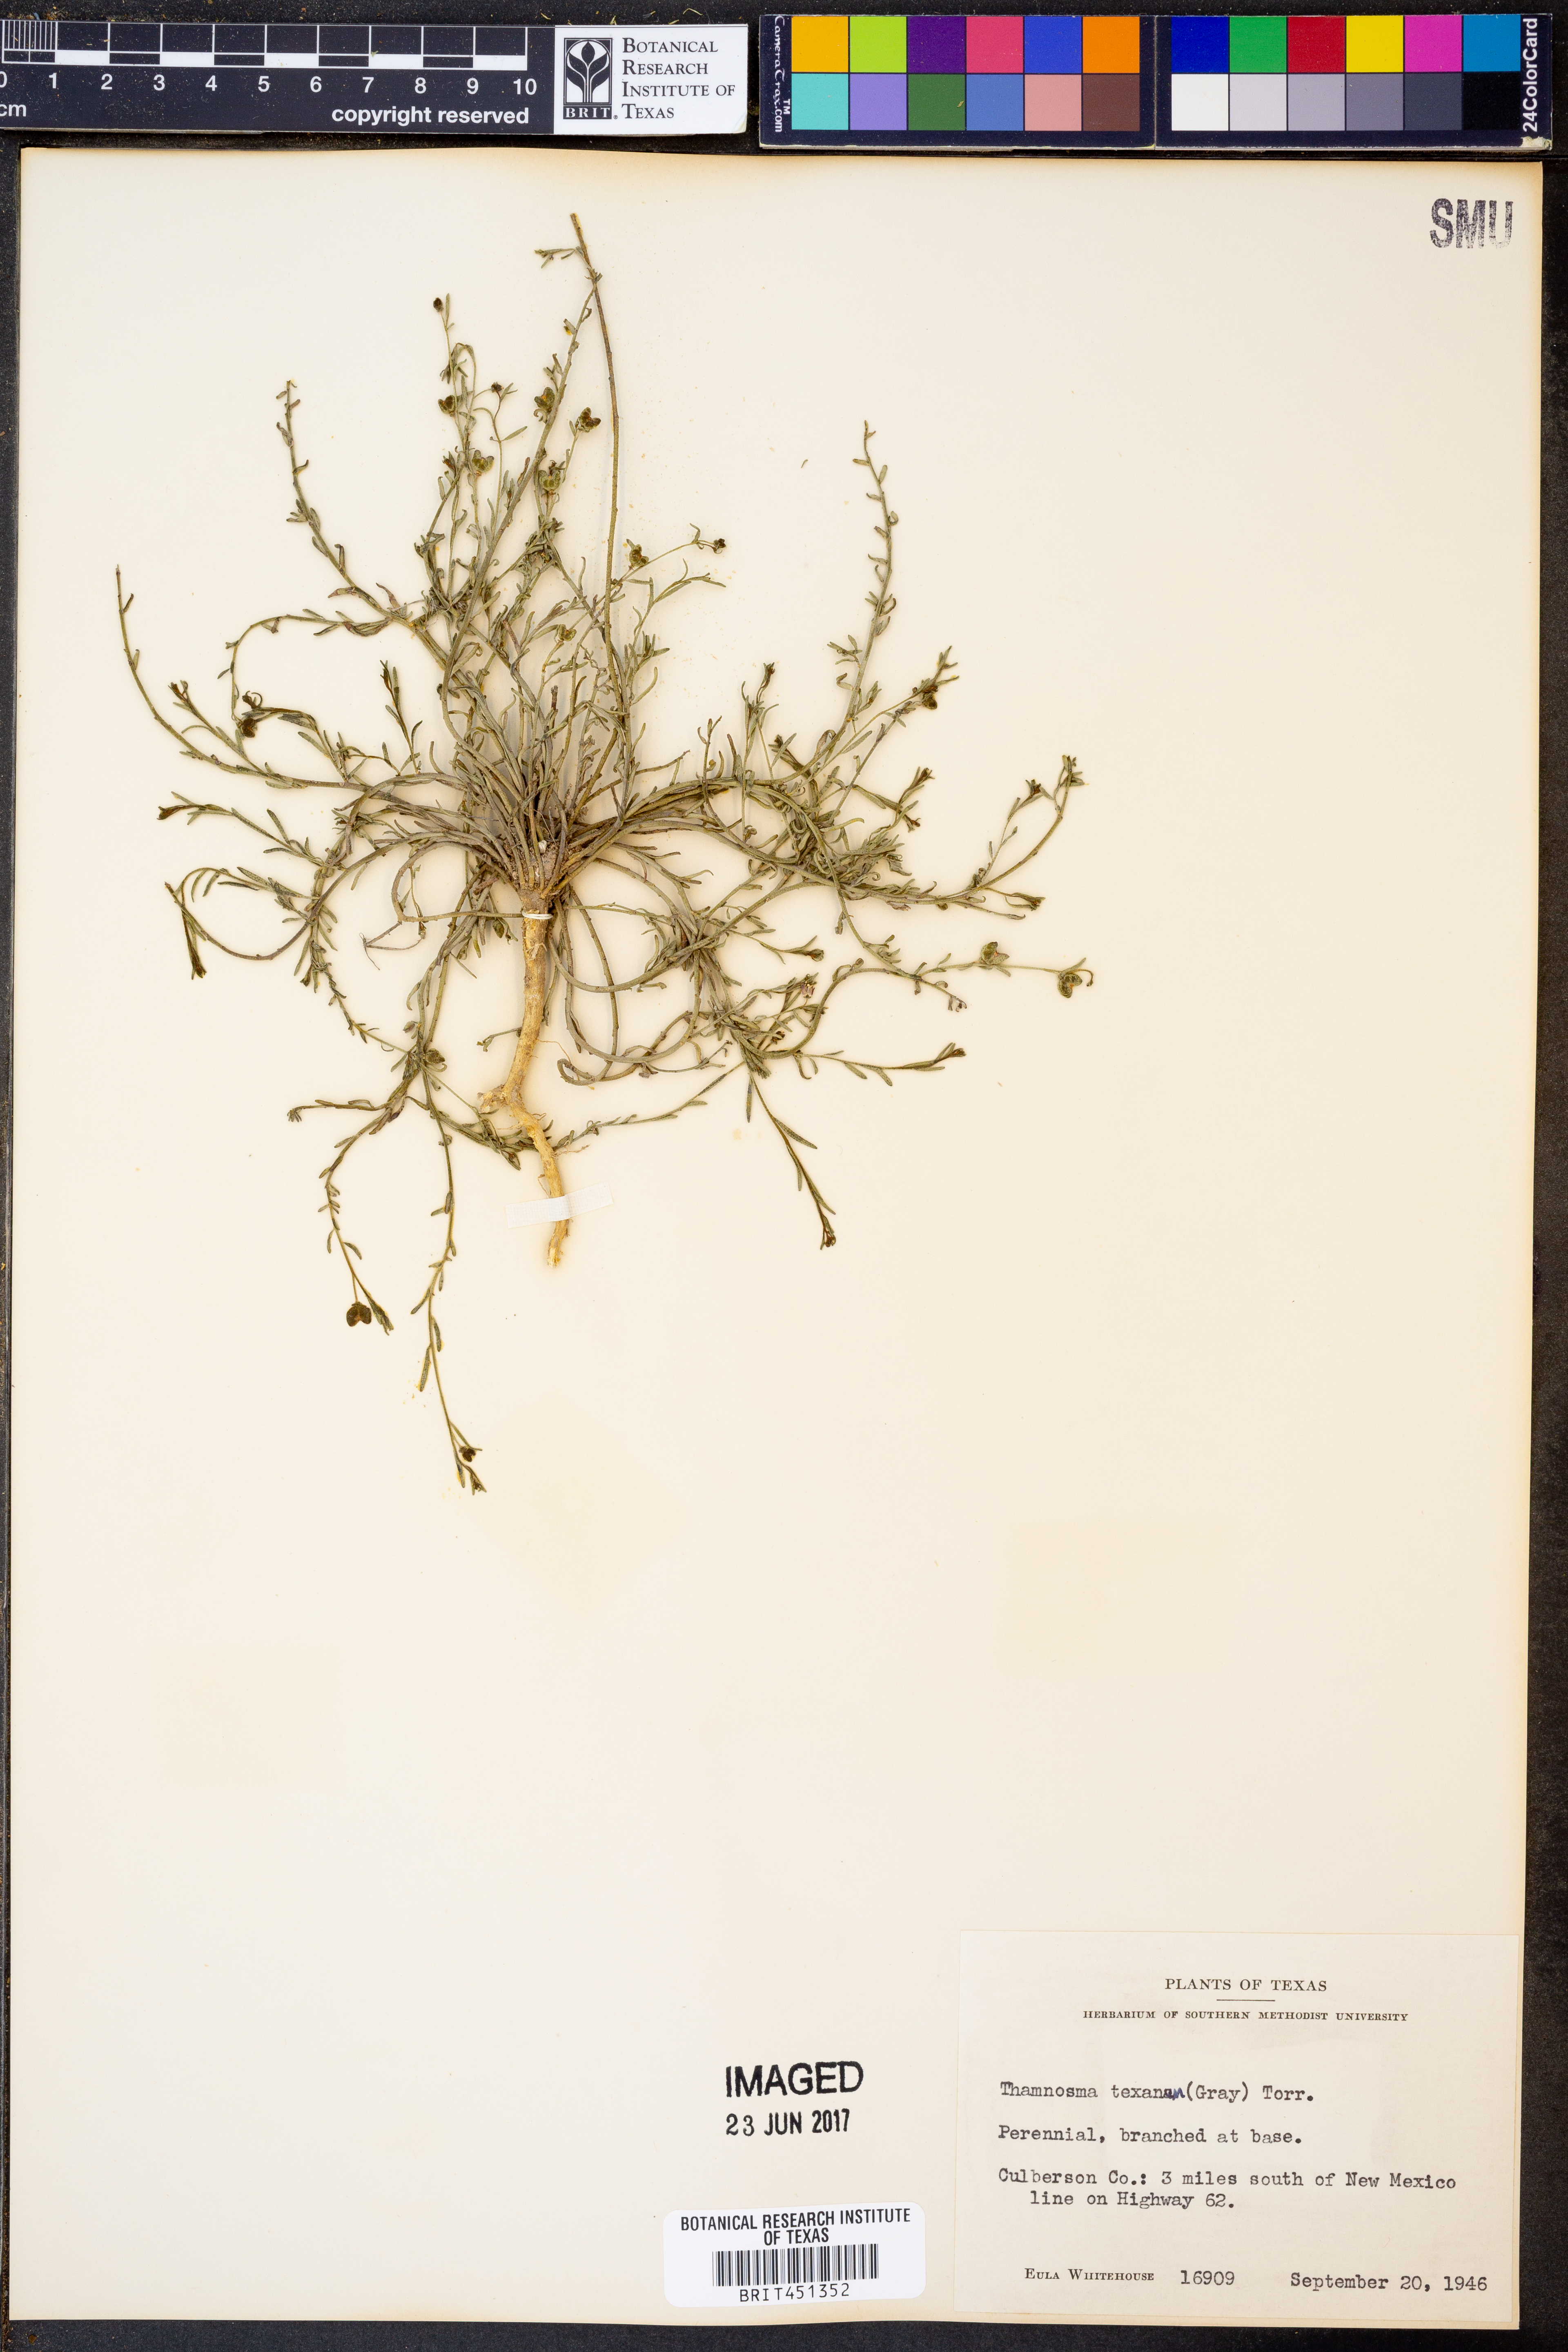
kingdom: Plantae
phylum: Tracheophyta
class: Magnoliopsida
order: Sapindales
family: Rutaceae
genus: Thamnosma
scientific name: Thamnosma texana
